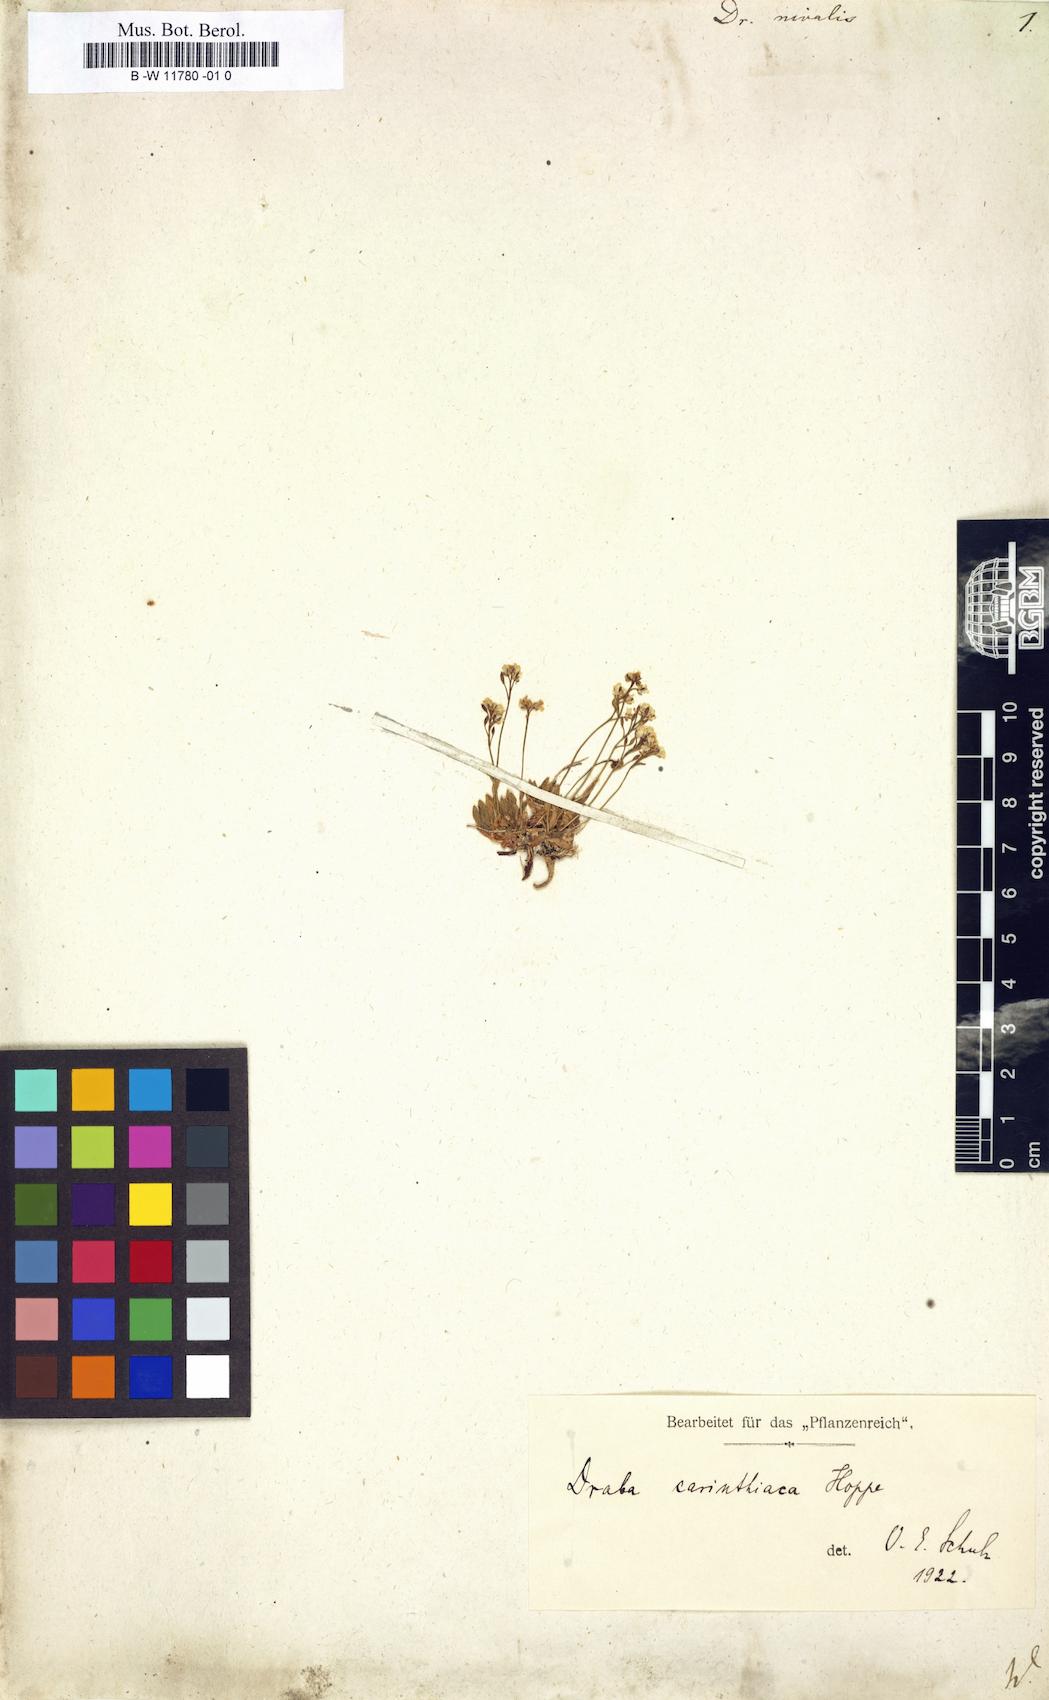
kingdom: Plantae
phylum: Tracheophyta
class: Magnoliopsida
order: Brassicales
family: Brassicaceae
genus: Draba
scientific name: Draba nivalis
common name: Snow draba
